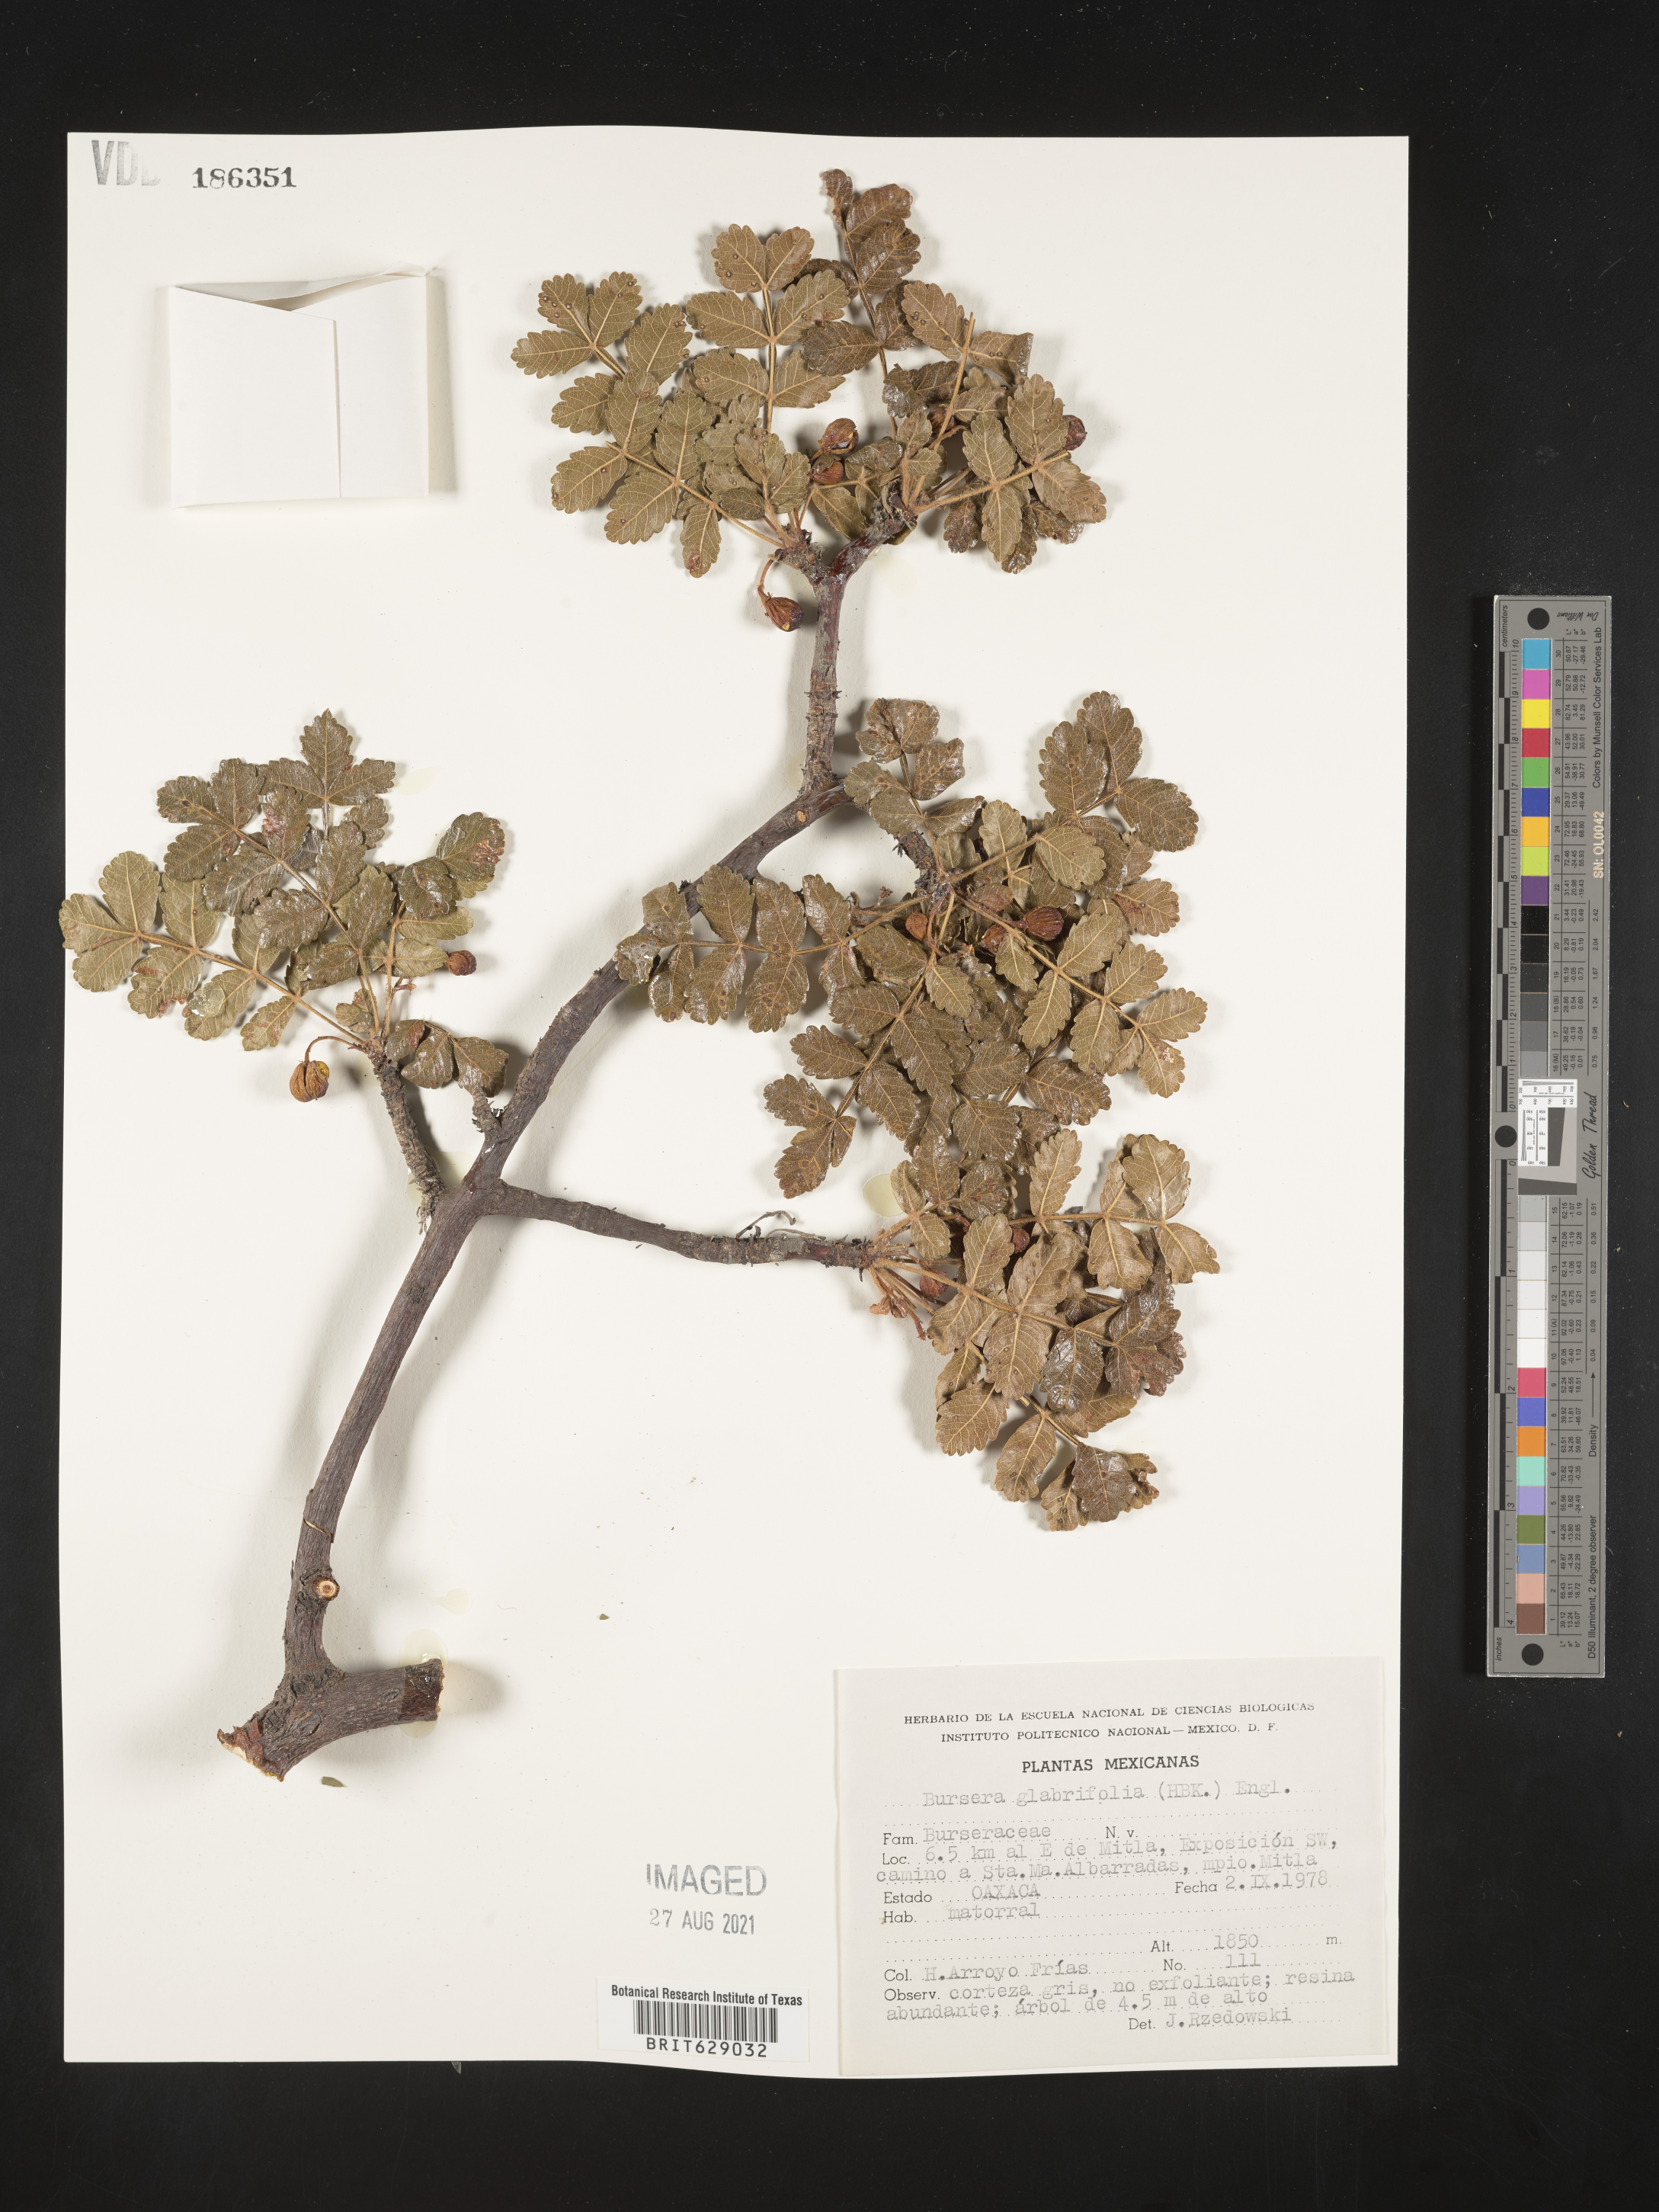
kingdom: Plantae
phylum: Tracheophyta
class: Magnoliopsida
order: Sapindales
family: Burseraceae
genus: Bursera
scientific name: Bursera
